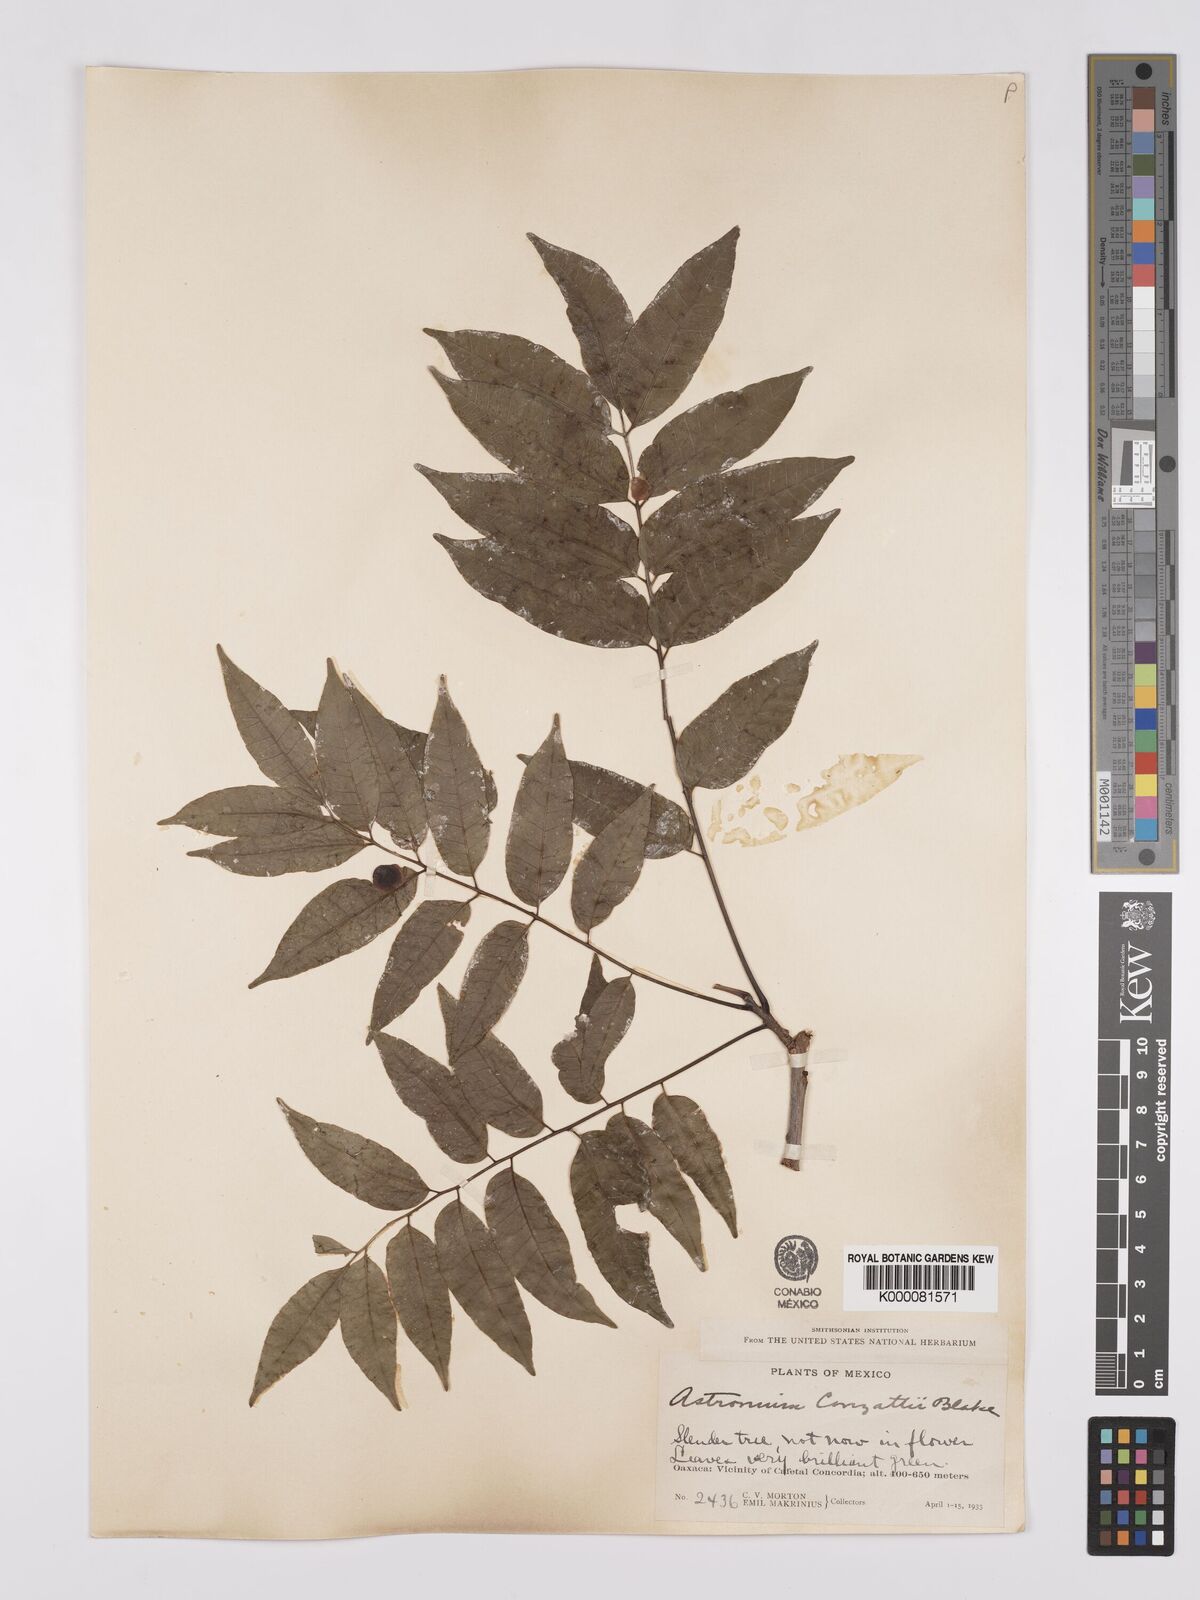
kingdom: Plantae
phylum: Tracheophyta
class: Magnoliopsida
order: Sapindales
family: Anacardiaceae
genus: Astronium
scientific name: Astronium graveolens
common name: Glassywood
